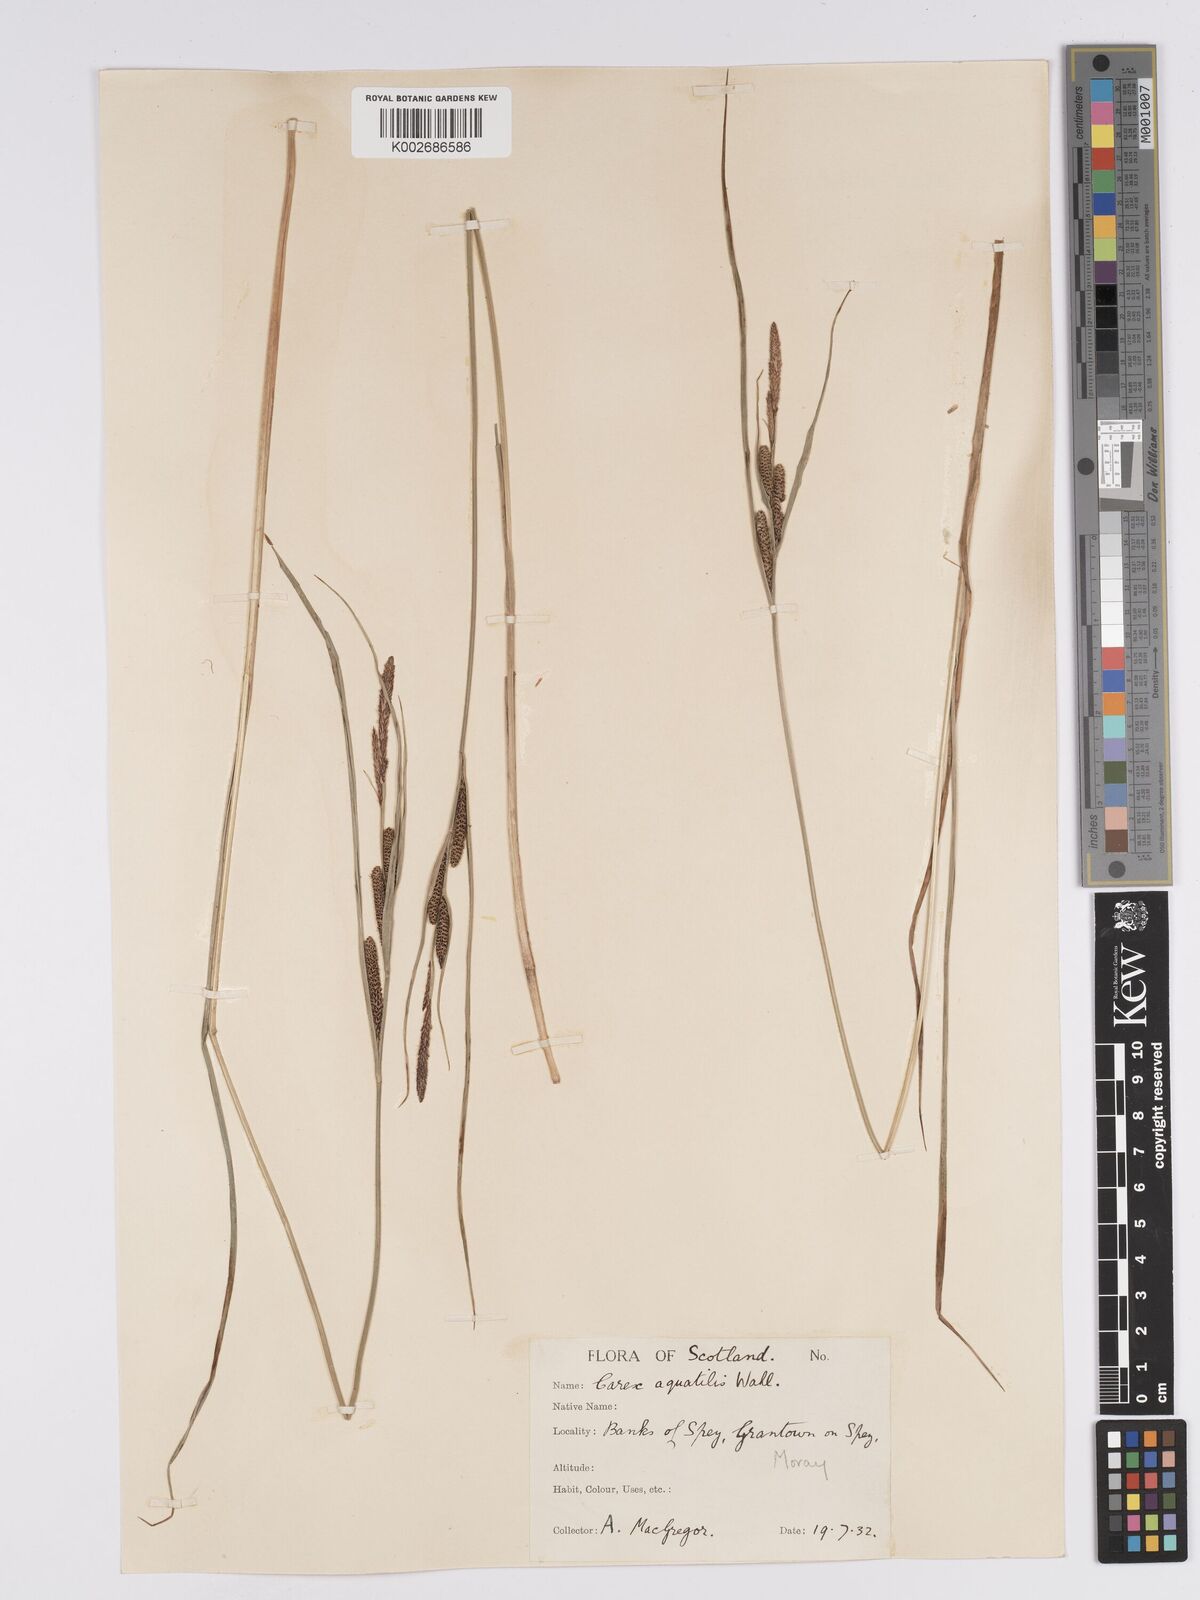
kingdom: Plantae
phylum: Tracheophyta
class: Liliopsida
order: Poales
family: Cyperaceae
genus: Carex
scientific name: Carex aquatilis
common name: Water sedge
